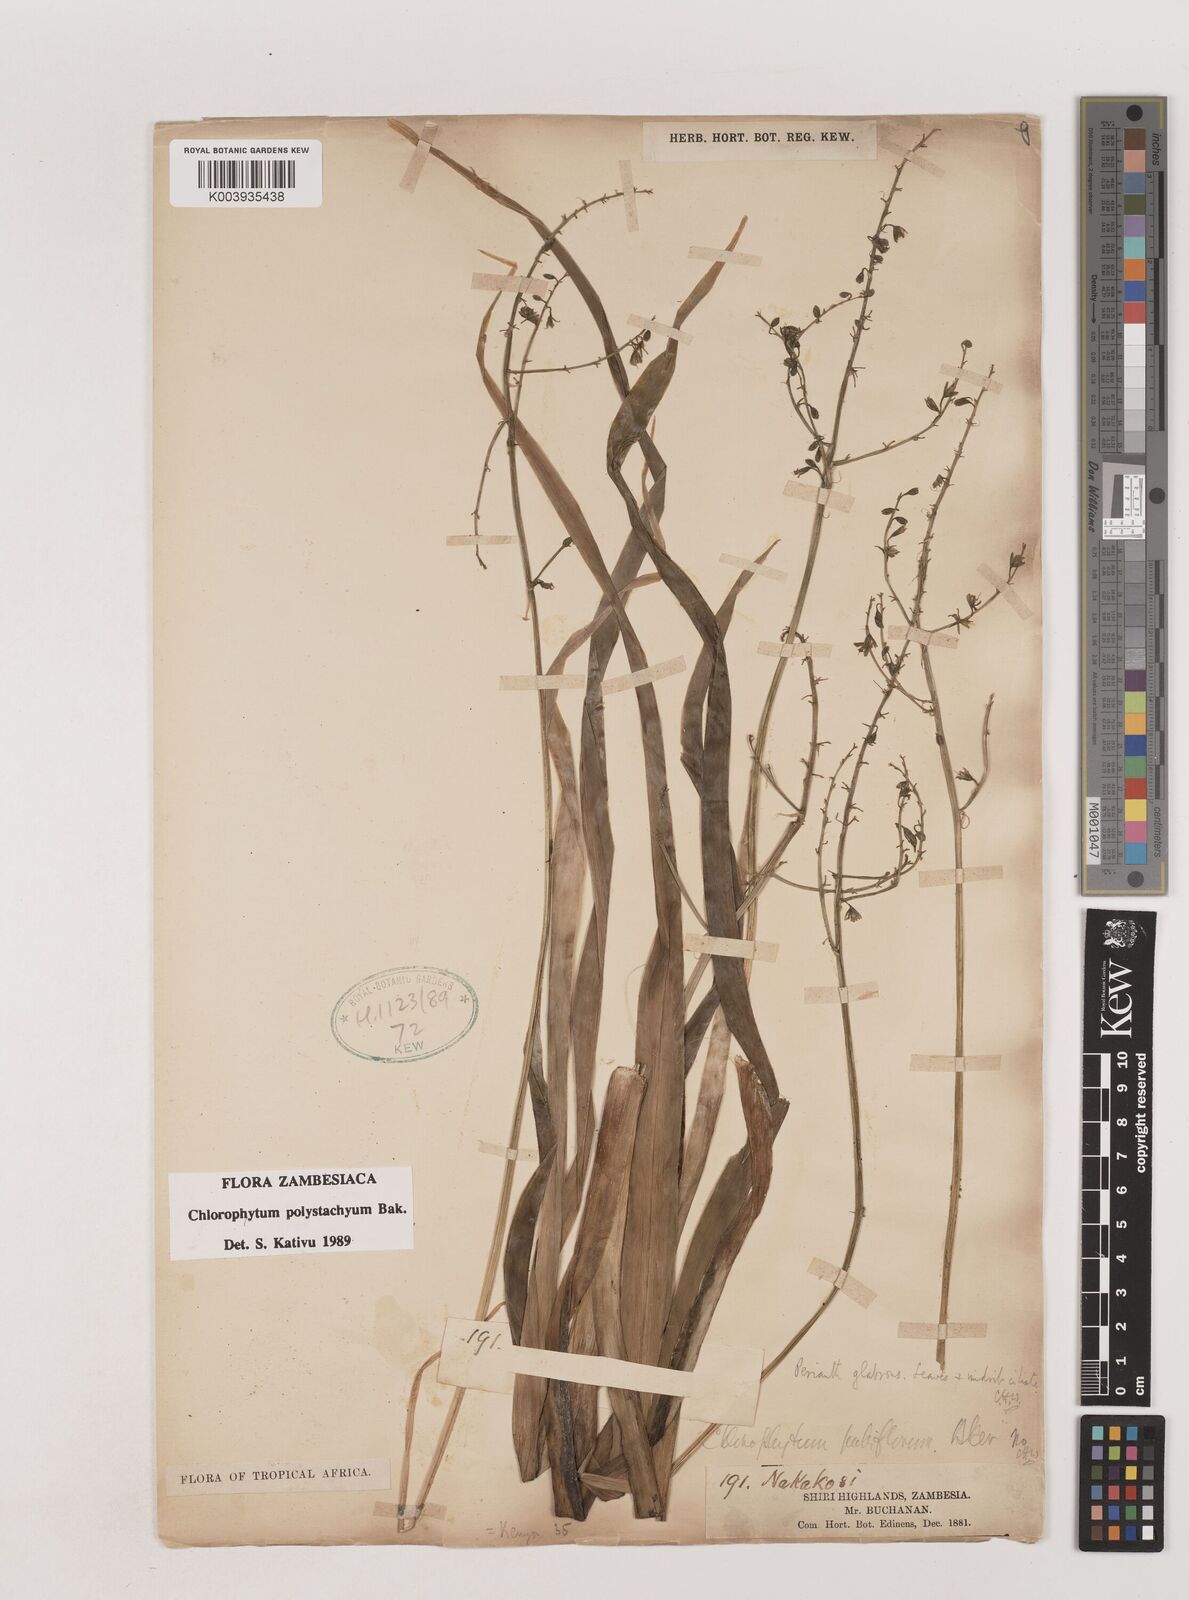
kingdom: Plantae
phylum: Tracheophyta
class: Liliopsida
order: Asparagales
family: Asparagaceae
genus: Chlorophytum
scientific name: Chlorophytum polystachys
